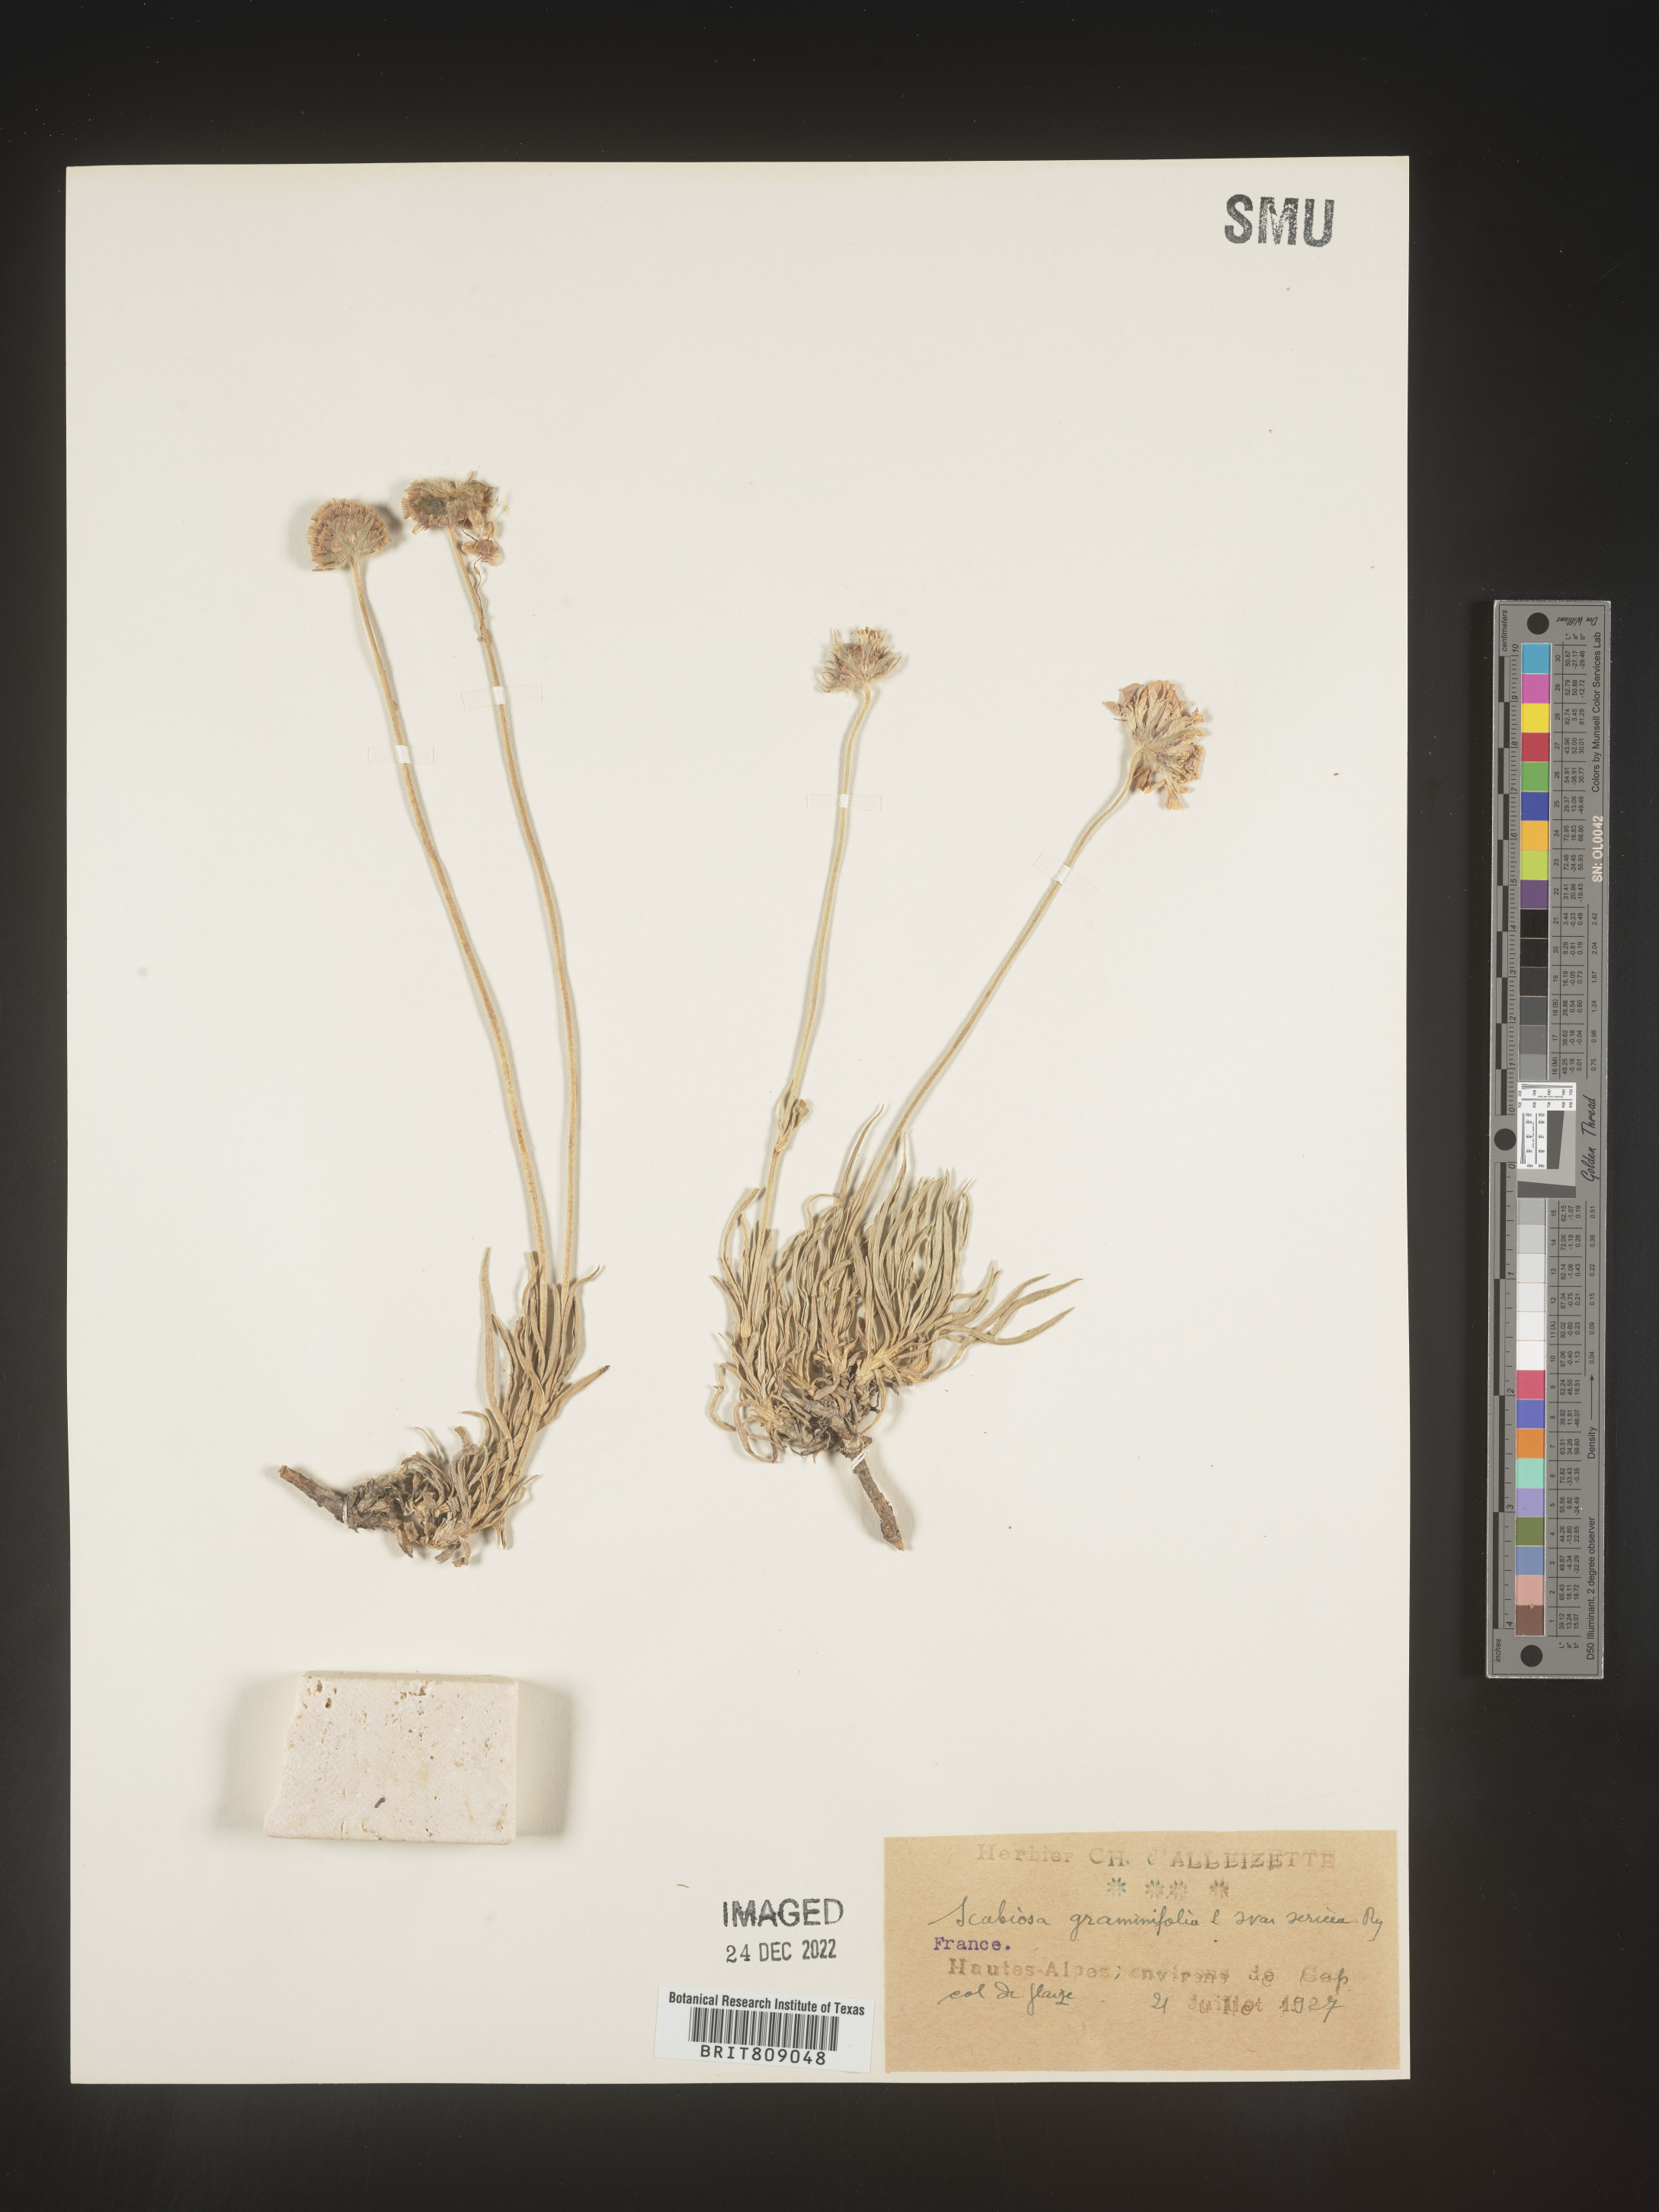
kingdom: Plantae
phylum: Tracheophyta
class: Magnoliopsida
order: Dipsacales
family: Caprifoliaceae
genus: Scabiosa
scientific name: Scabiosa
